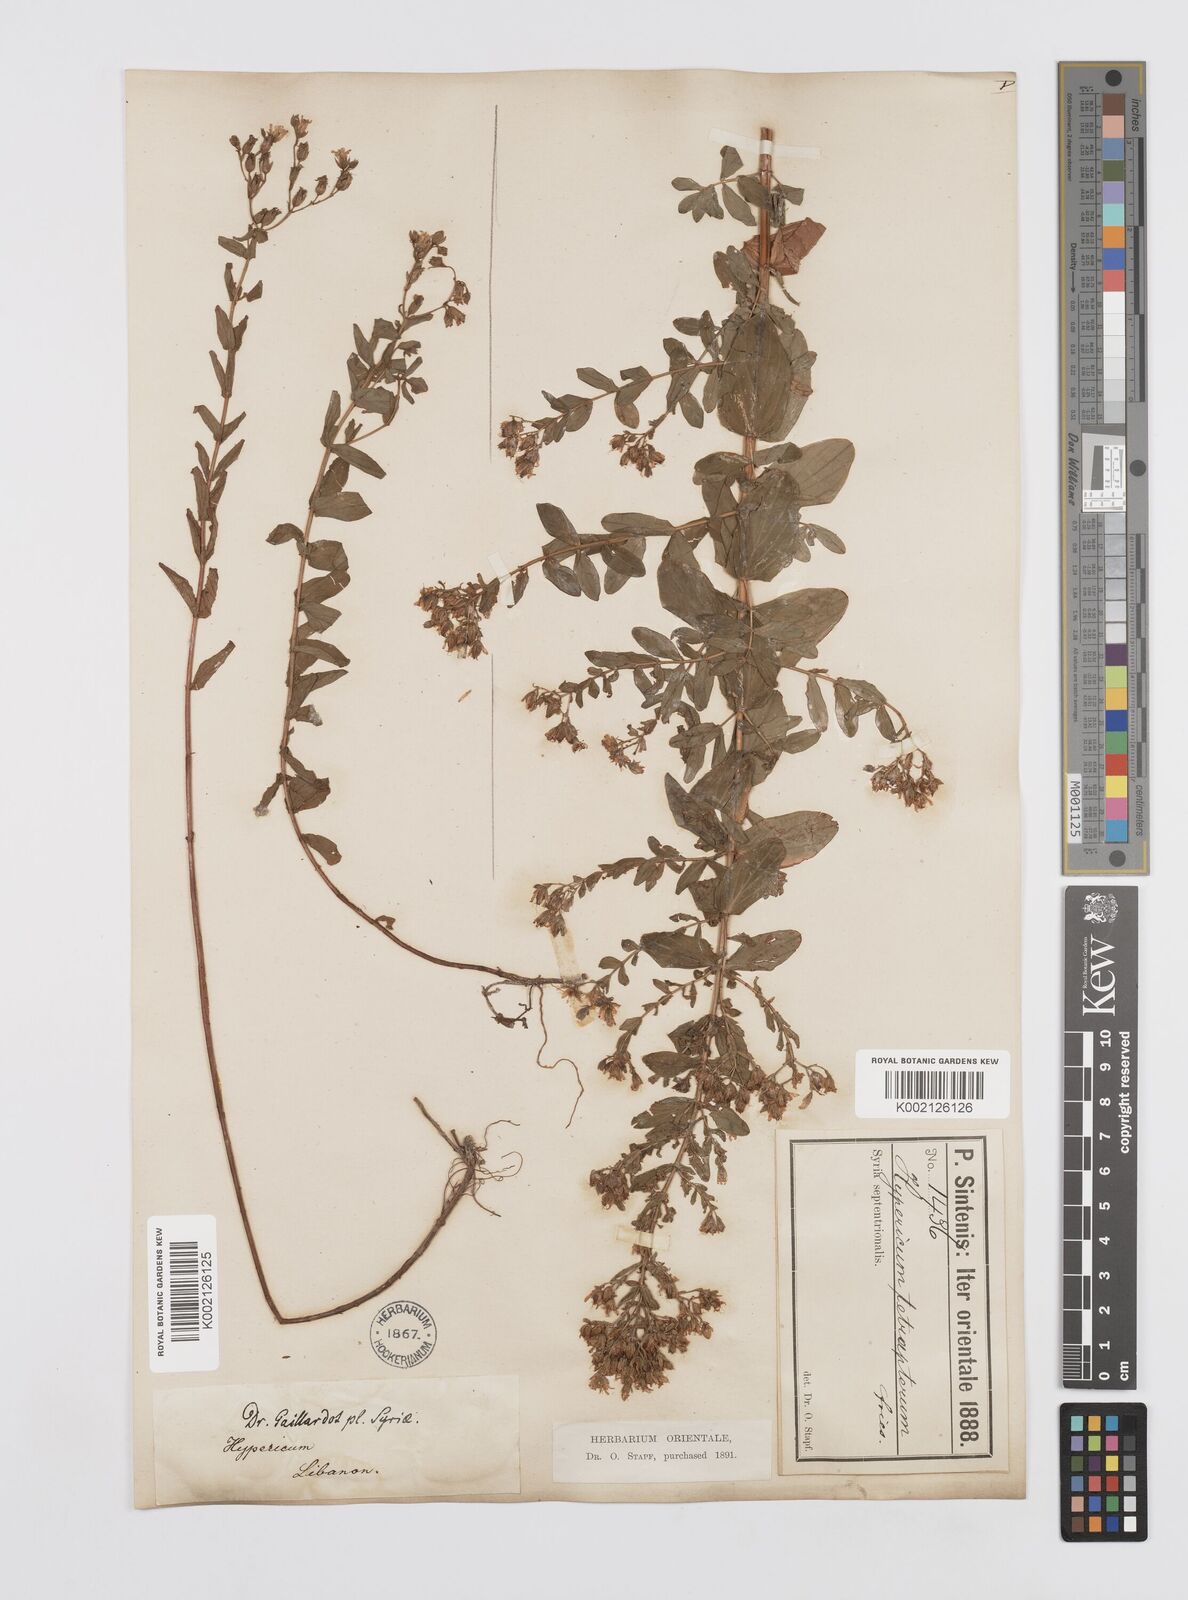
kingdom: Plantae
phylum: Tracheophyta
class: Magnoliopsida
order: Malpighiales
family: Hypericaceae
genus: Hypericum
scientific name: Hypericum tetrapterum
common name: Square-stalked st. john's-wort
